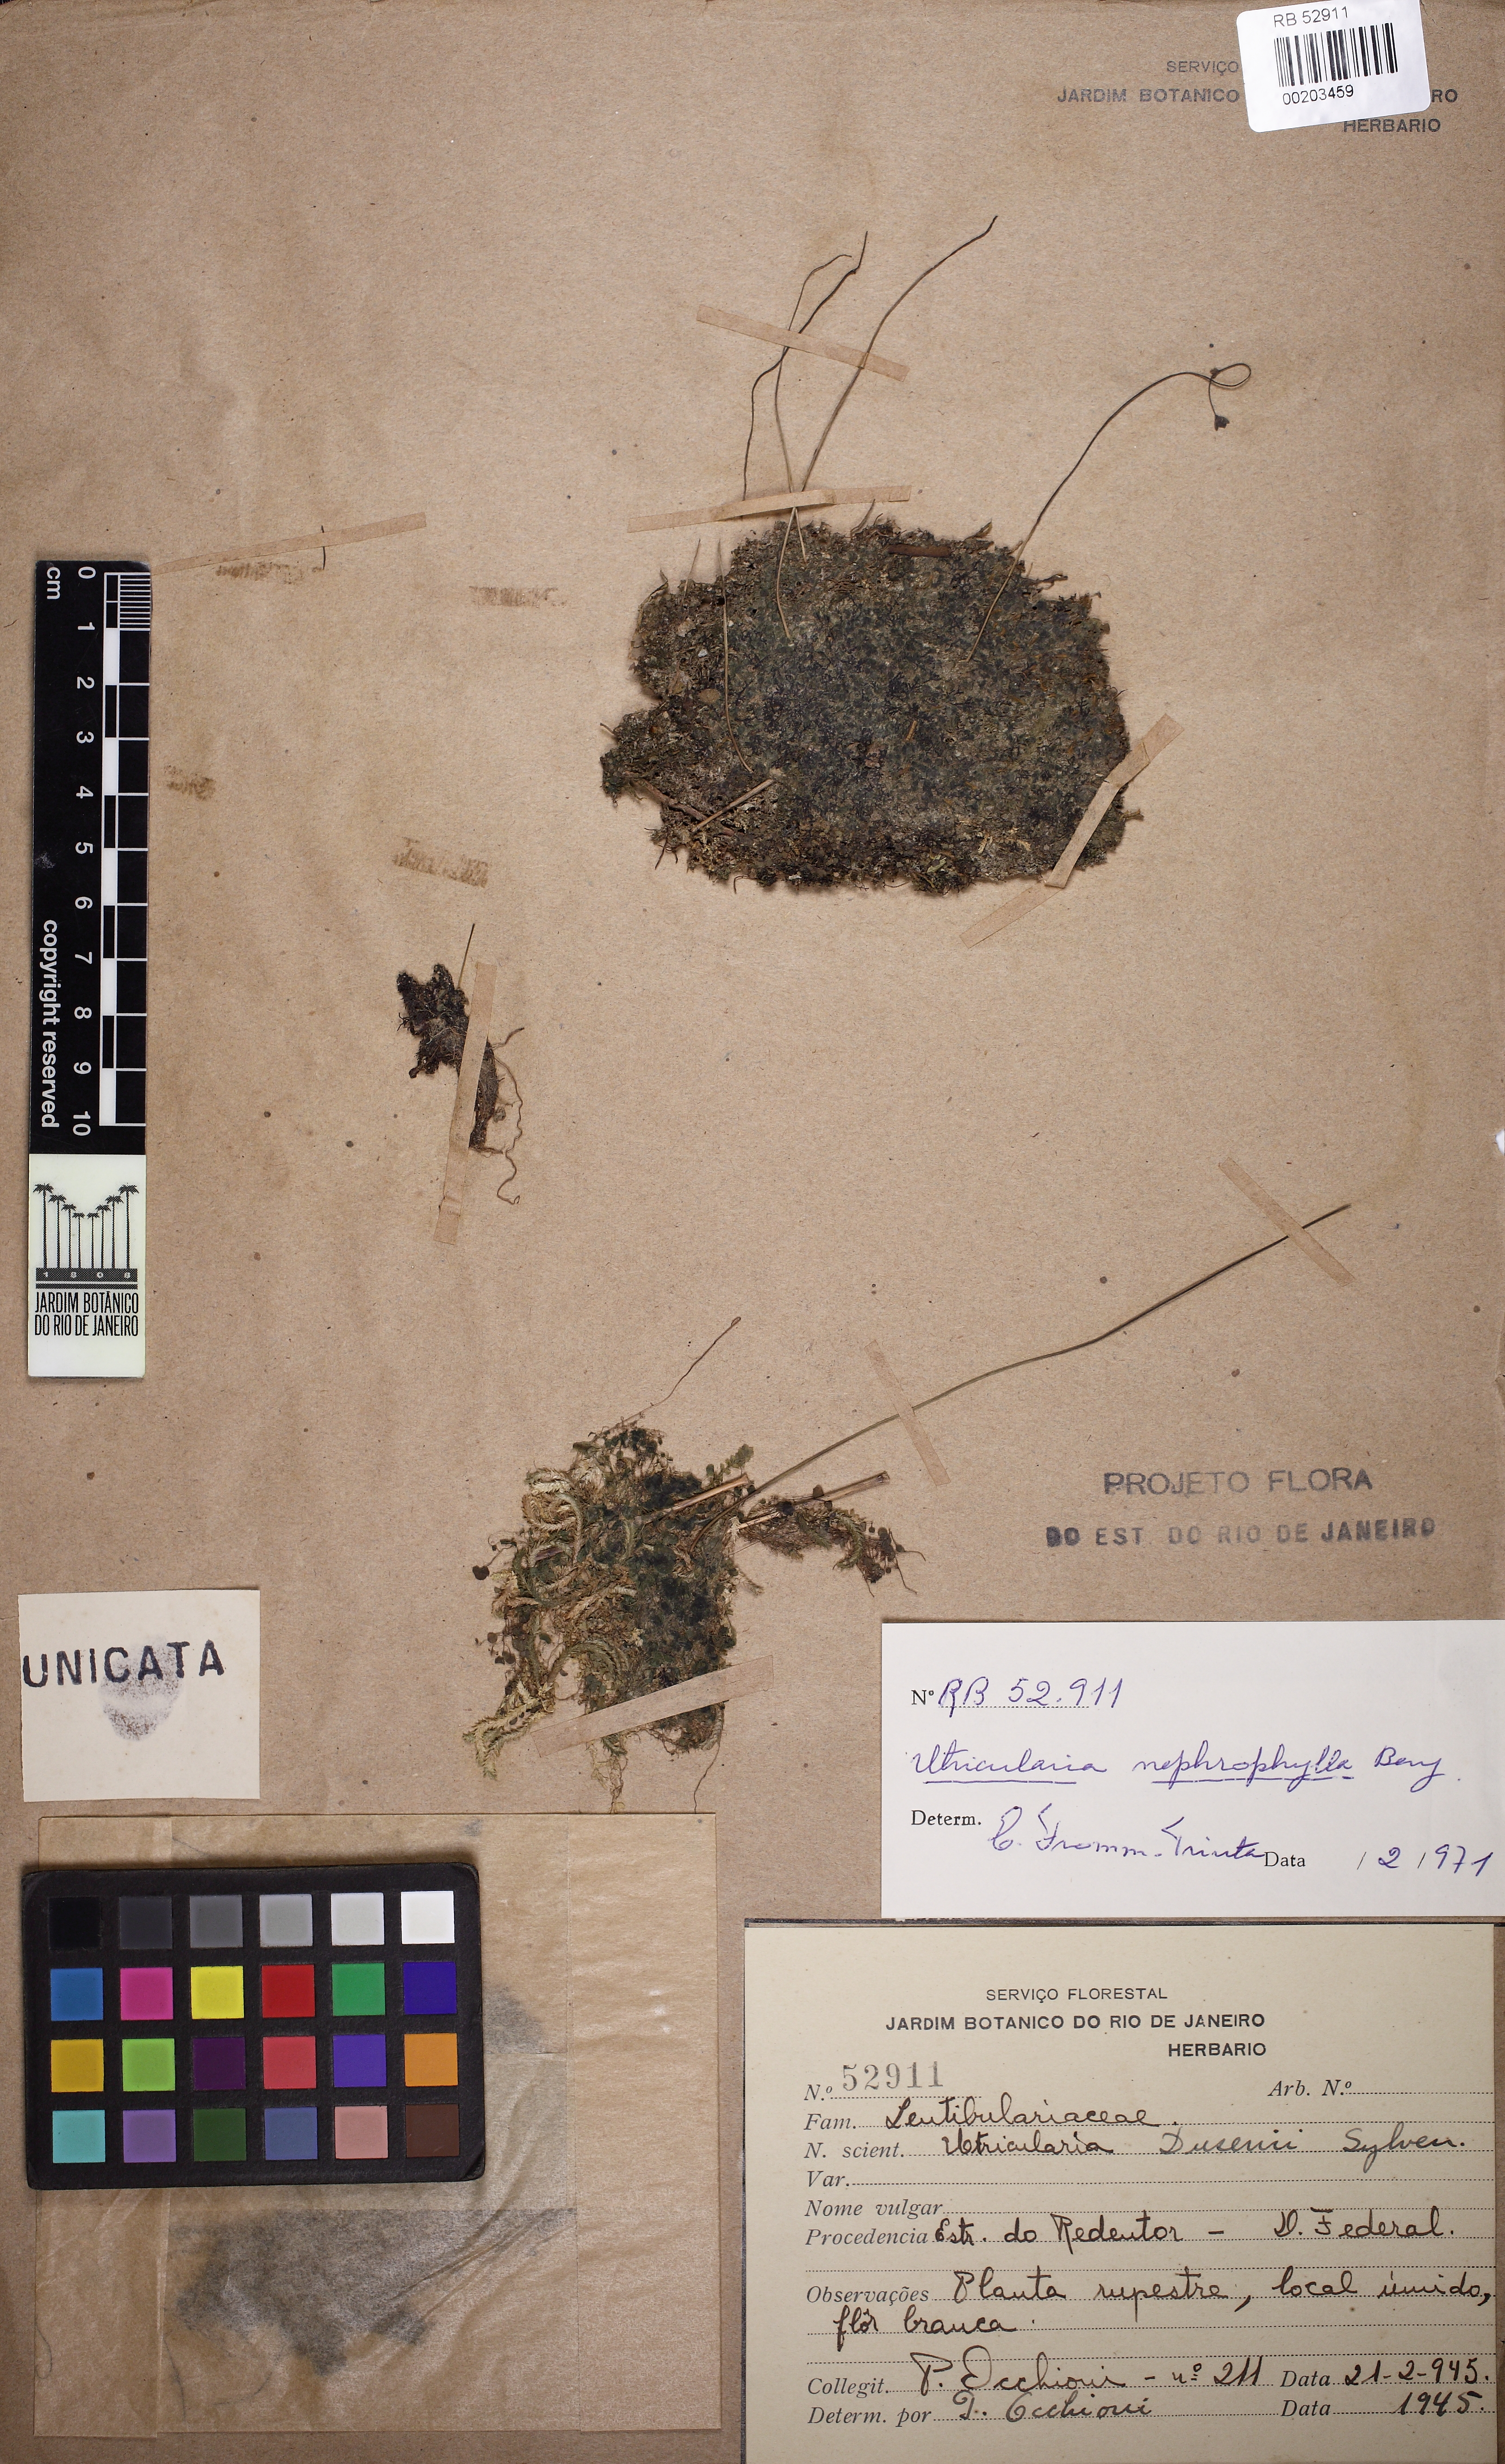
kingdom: Plantae
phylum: Tracheophyta
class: Magnoliopsida
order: Lamiales
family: Lentibulariaceae
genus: Utricularia
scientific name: Utricularia nephrophylla
